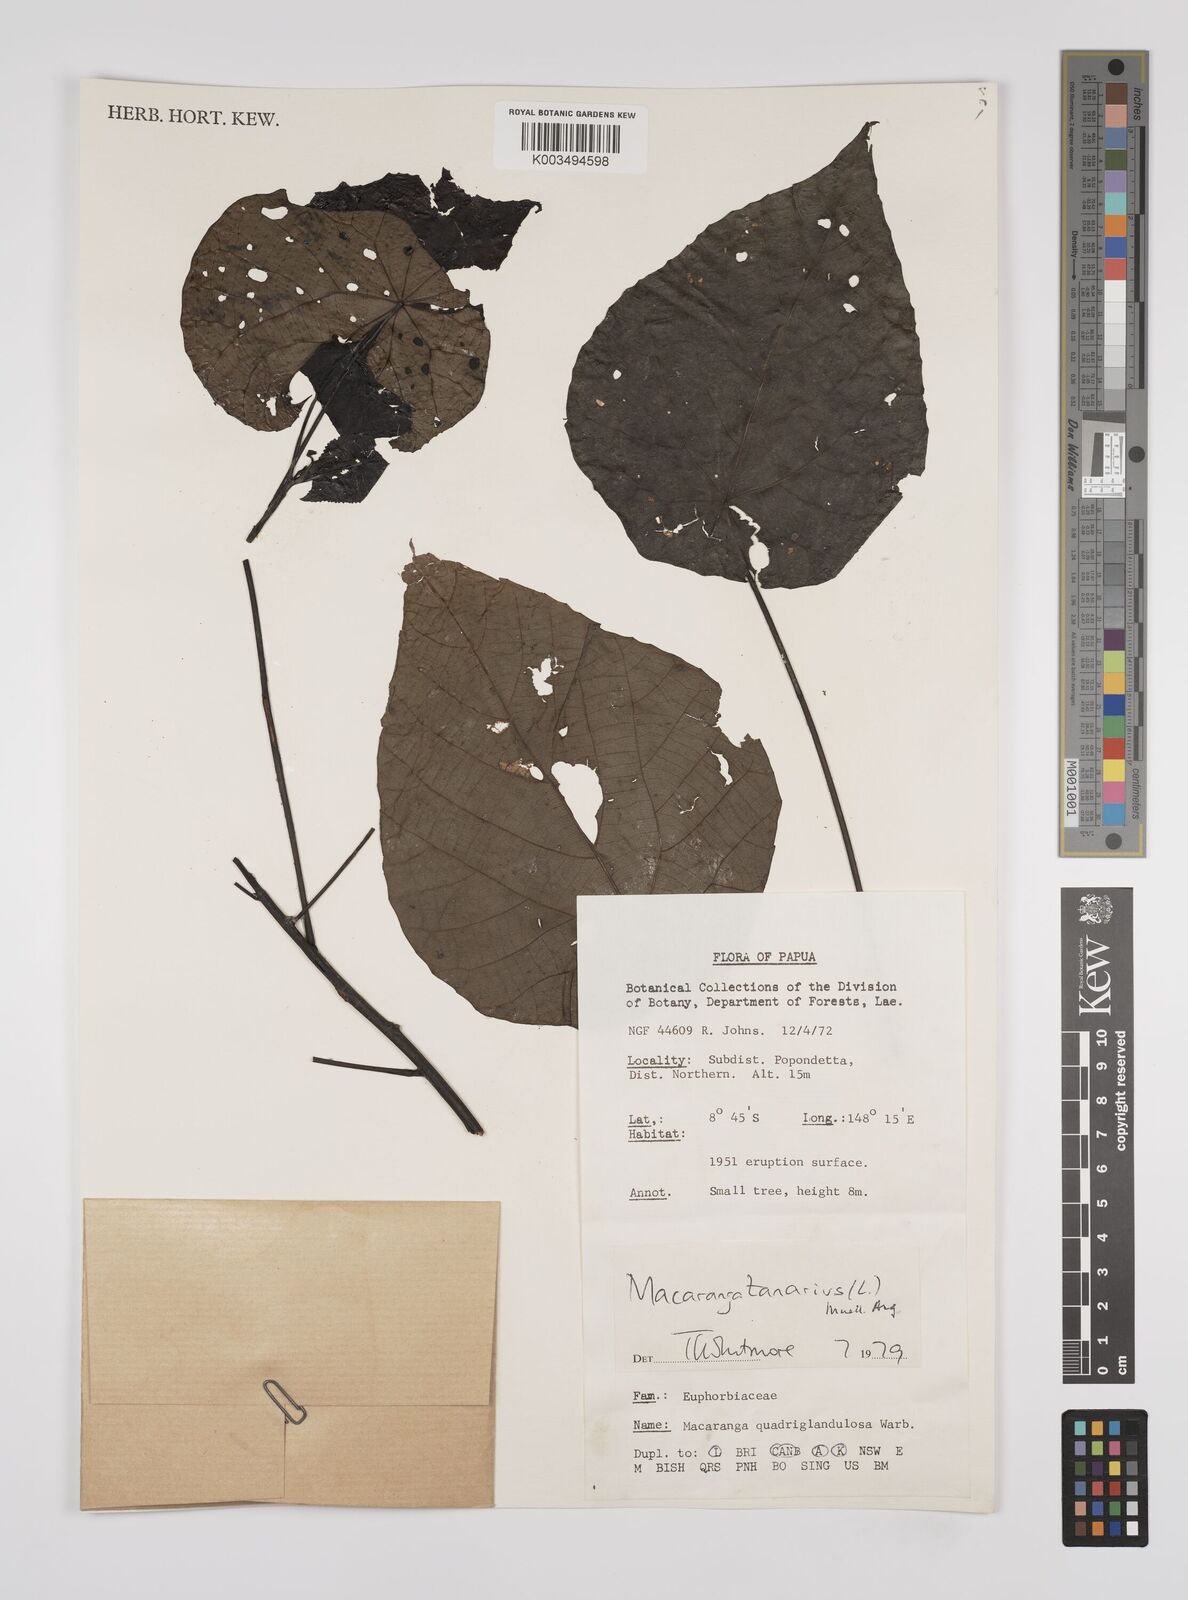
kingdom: Plantae
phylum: Tracheophyta
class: Magnoliopsida
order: Malpighiales
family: Euphorbiaceae
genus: Macaranga
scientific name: Macaranga tanarius
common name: Parasol leaf tree
